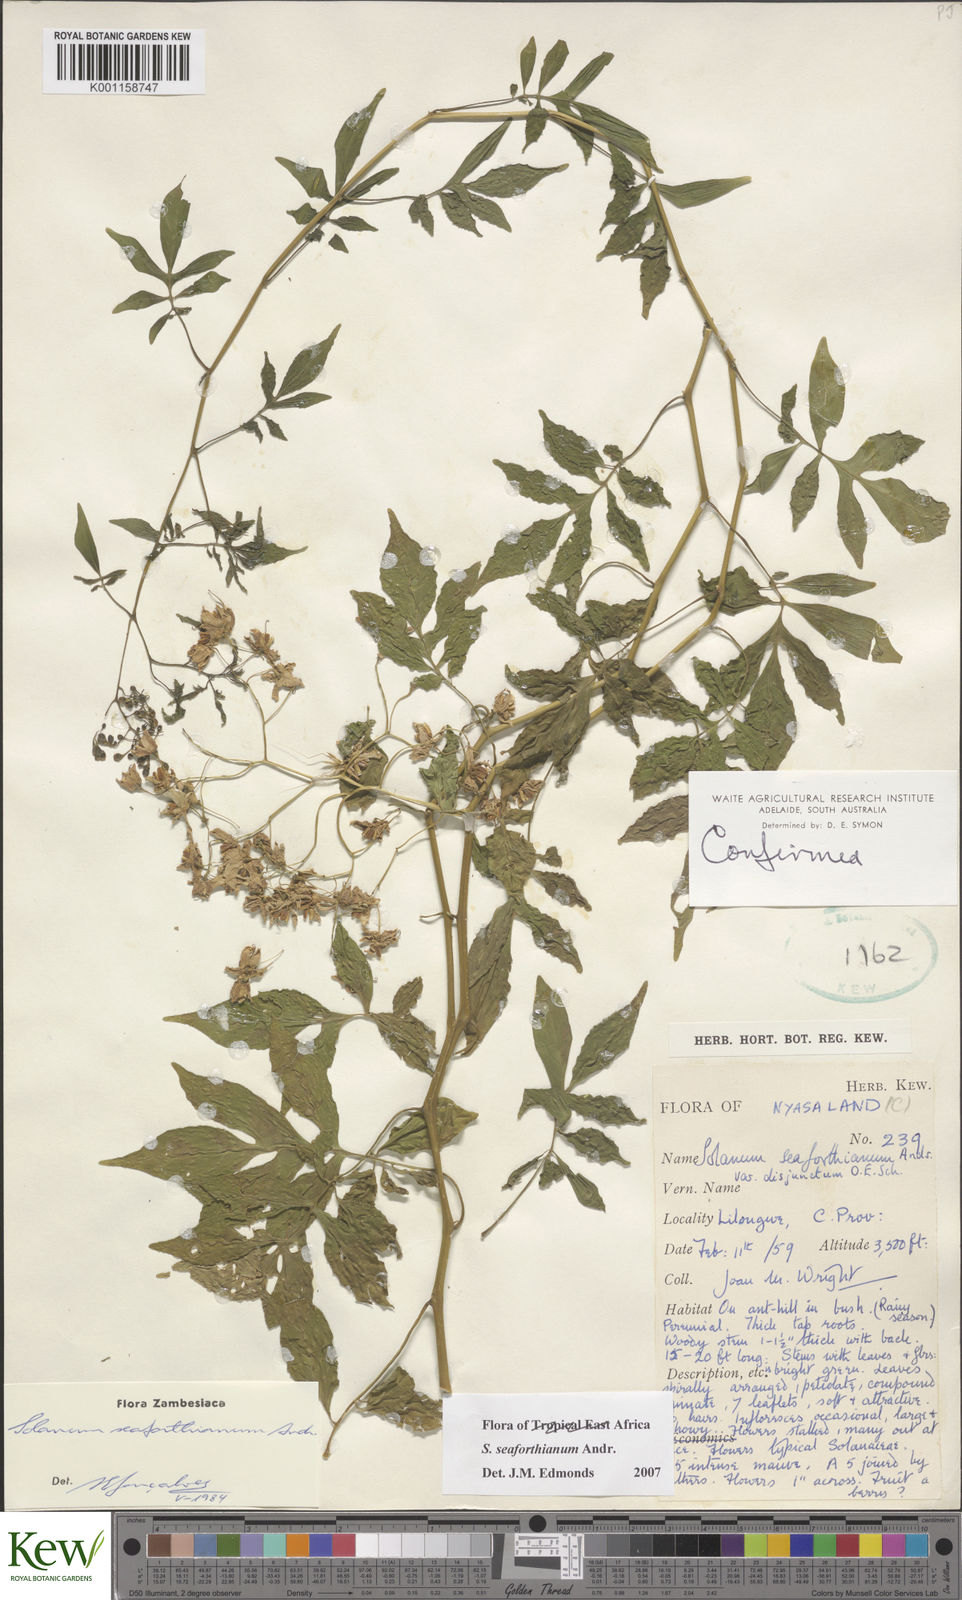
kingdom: Plantae
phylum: Tracheophyta
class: Magnoliopsida
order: Solanales
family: Solanaceae
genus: Solanum
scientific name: Solanum seaforthianum
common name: Brazilian nightshade
